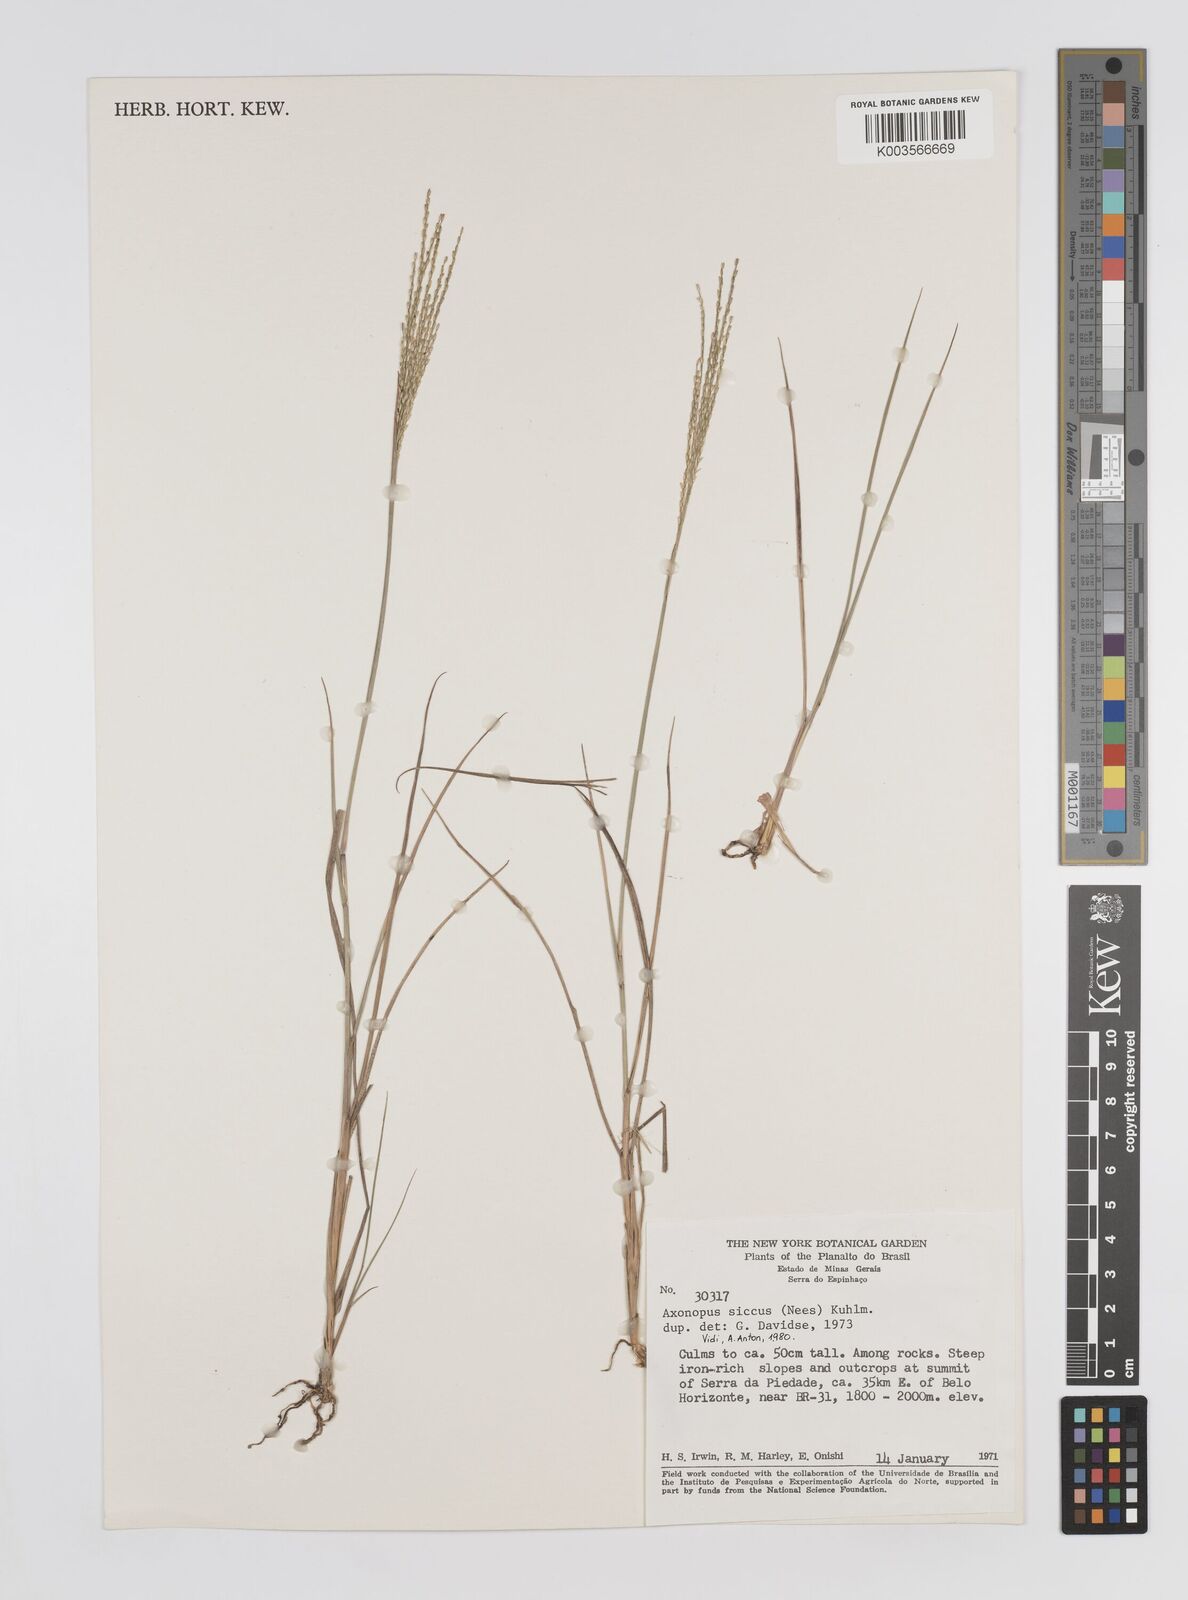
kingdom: Plantae
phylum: Tracheophyta
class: Liliopsida
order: Poales
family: Poaceae
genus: Axonopus
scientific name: Axonopus siccus
